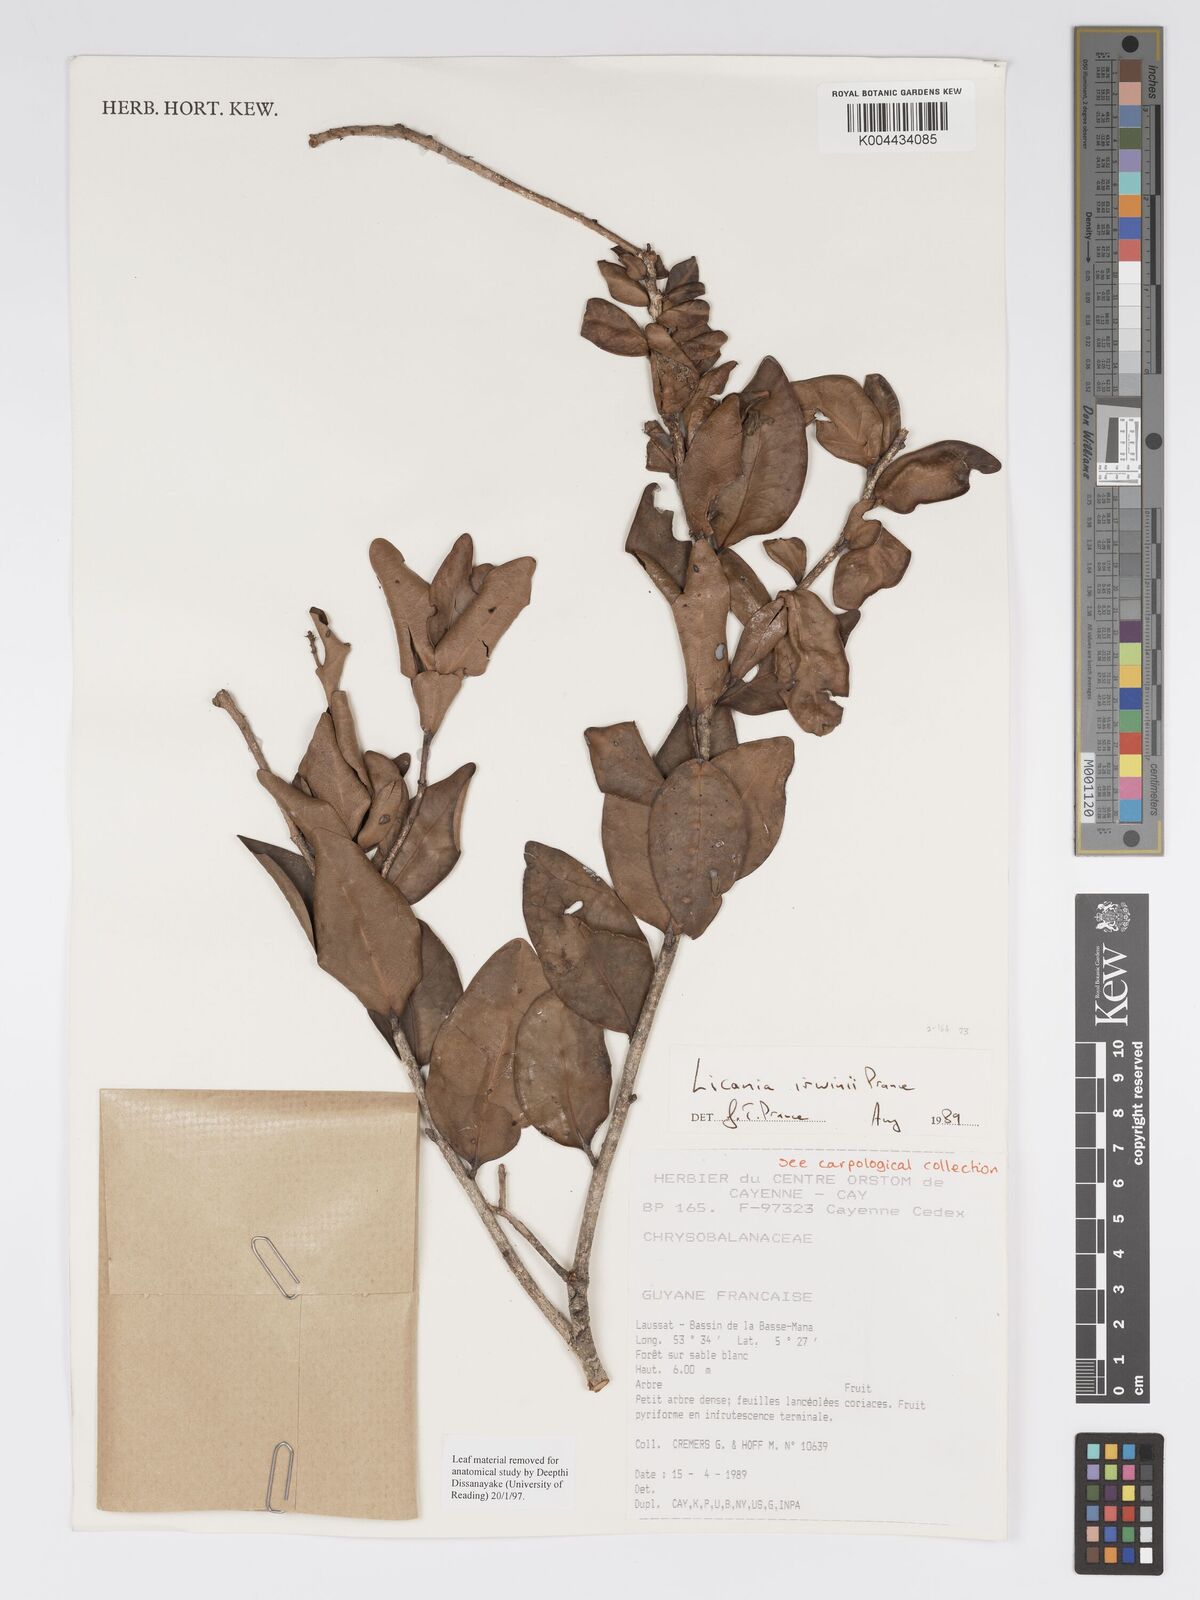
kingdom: Plantae
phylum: Tracheophyta
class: Magnoliopsida
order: Malpighiales
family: Chrysobalanaceae
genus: Licania
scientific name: Licania irwinii
